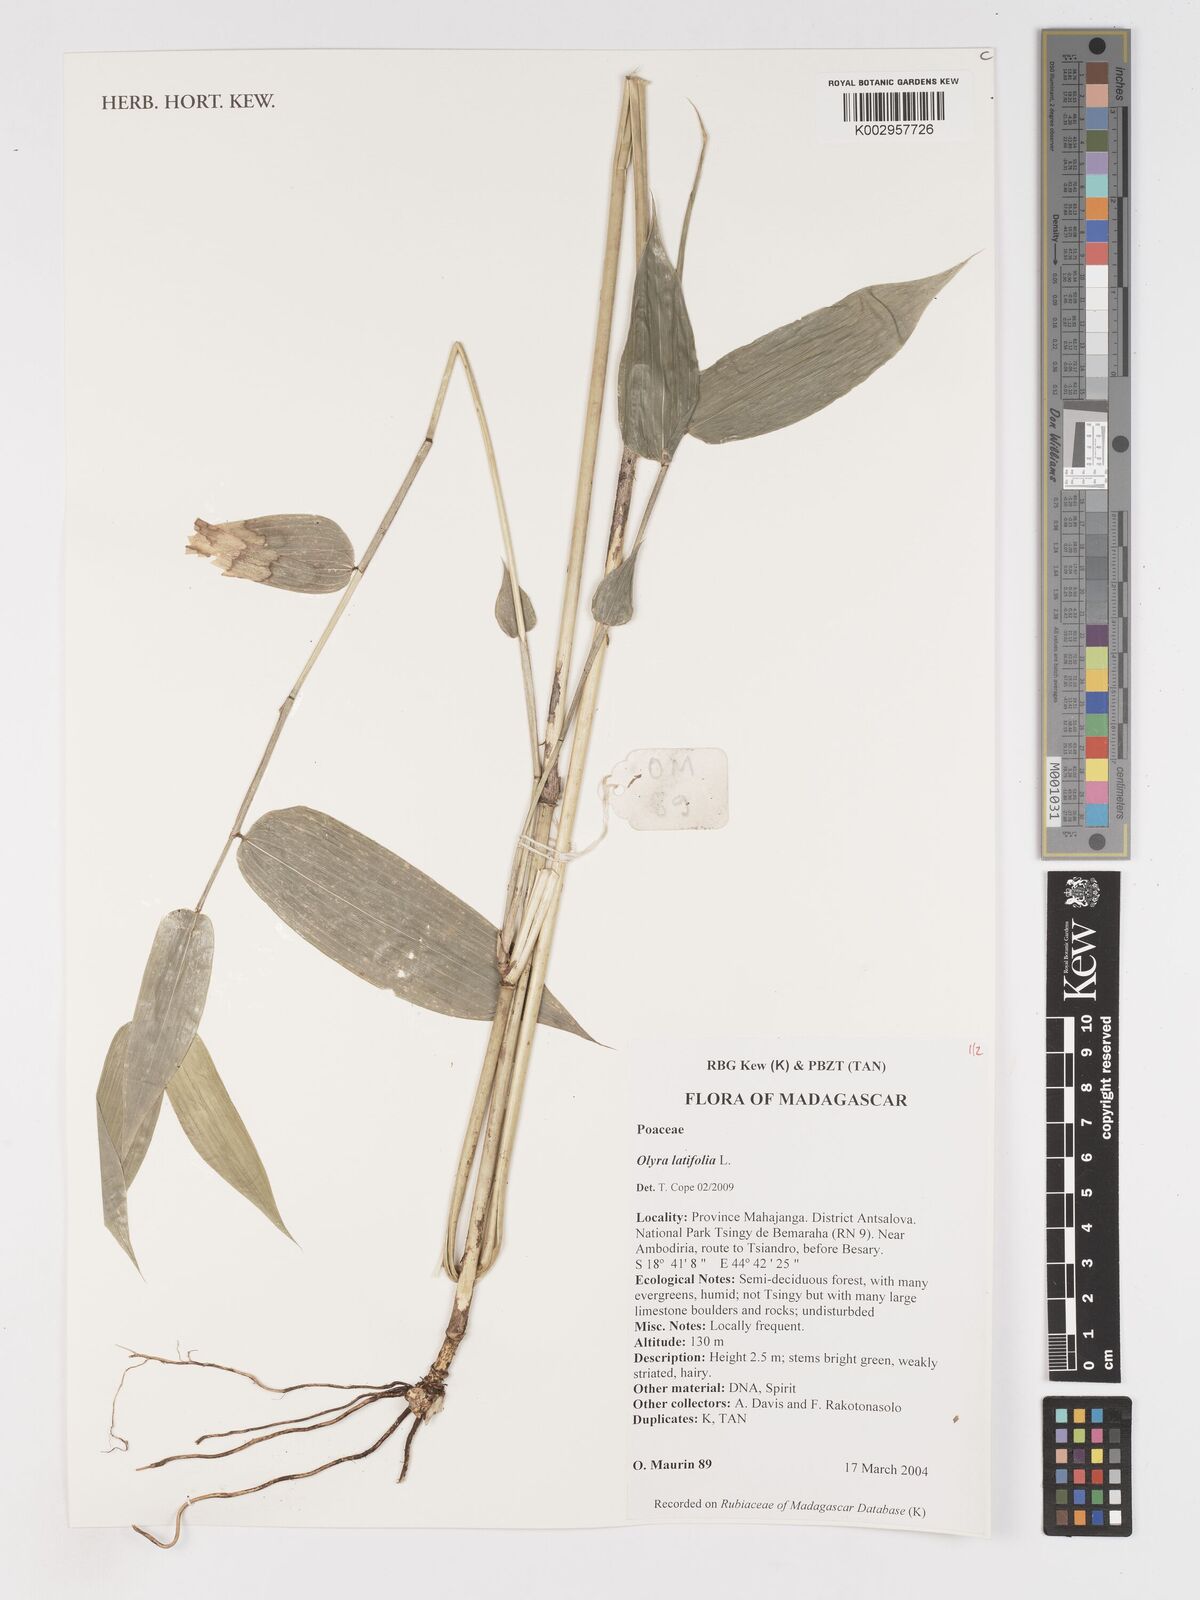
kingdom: Plantae
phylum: Tracheophyta
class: Liliopsida
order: Poales
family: Poaceae
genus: Olyra
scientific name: Olyra latifolia
